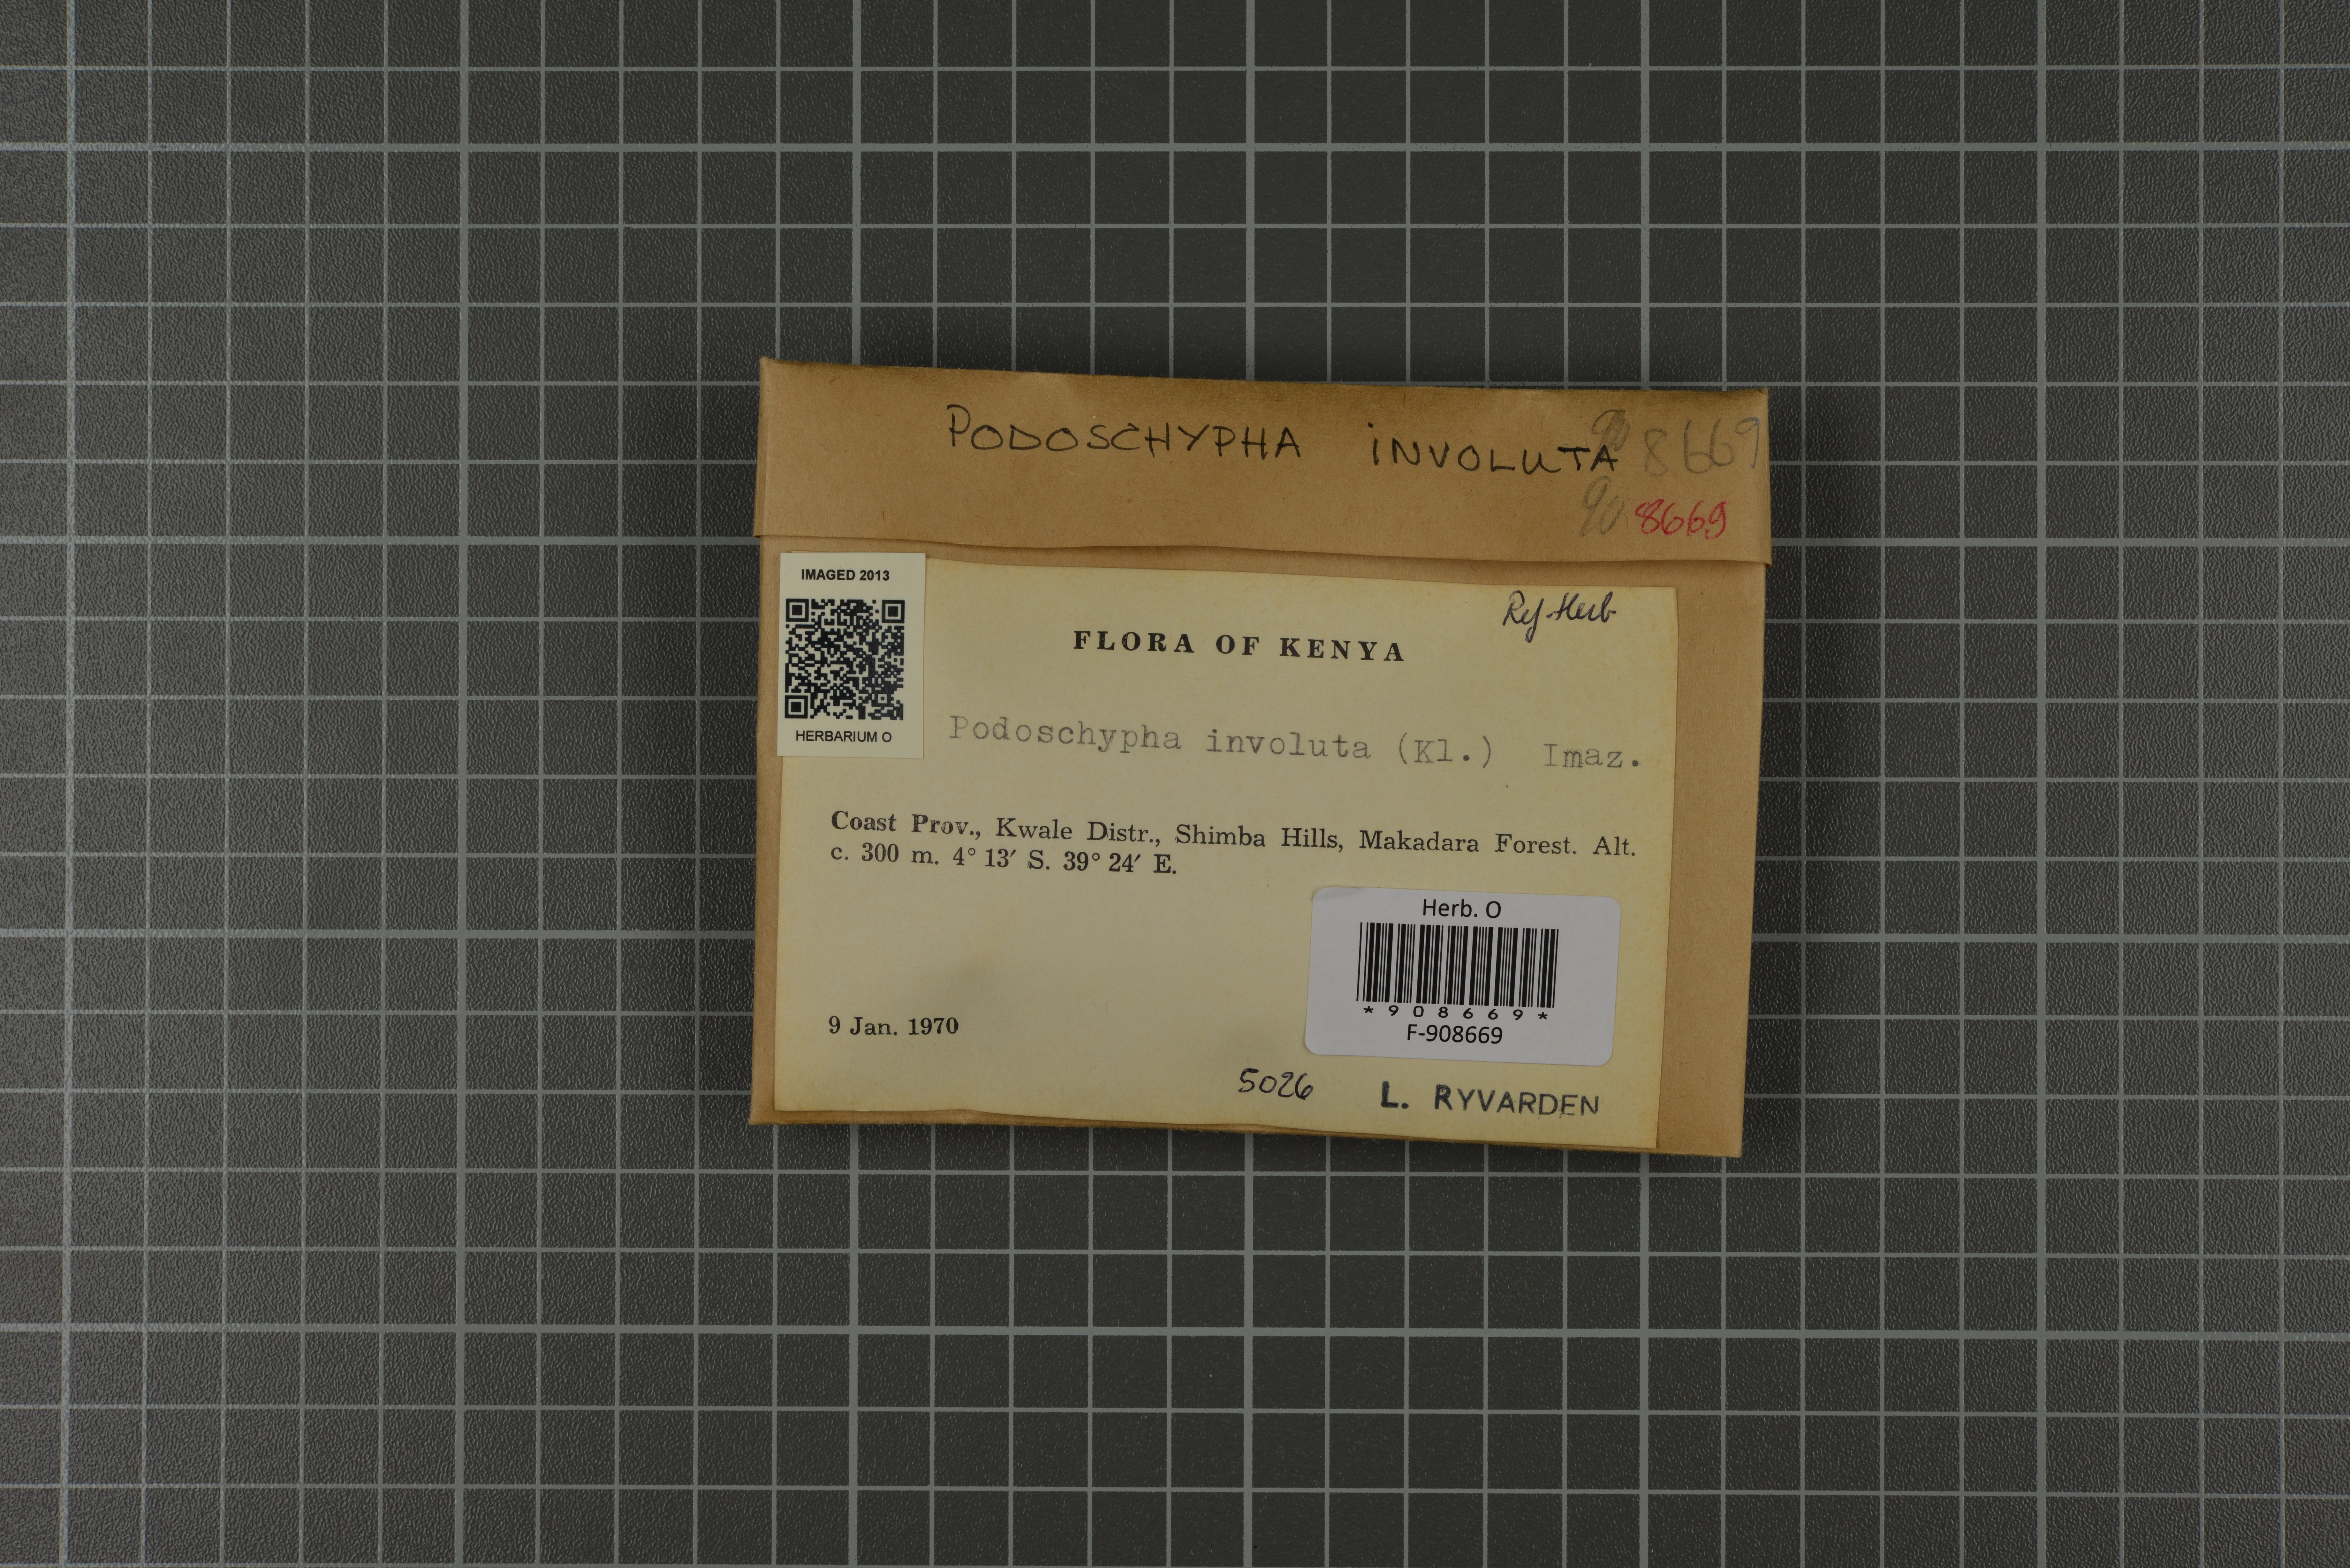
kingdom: Fungi
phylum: Basidiomycota
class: Agaricomycetes
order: Polyporales
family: Podoscyphaceae
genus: Podoscypha
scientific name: Podoscypha involuta
